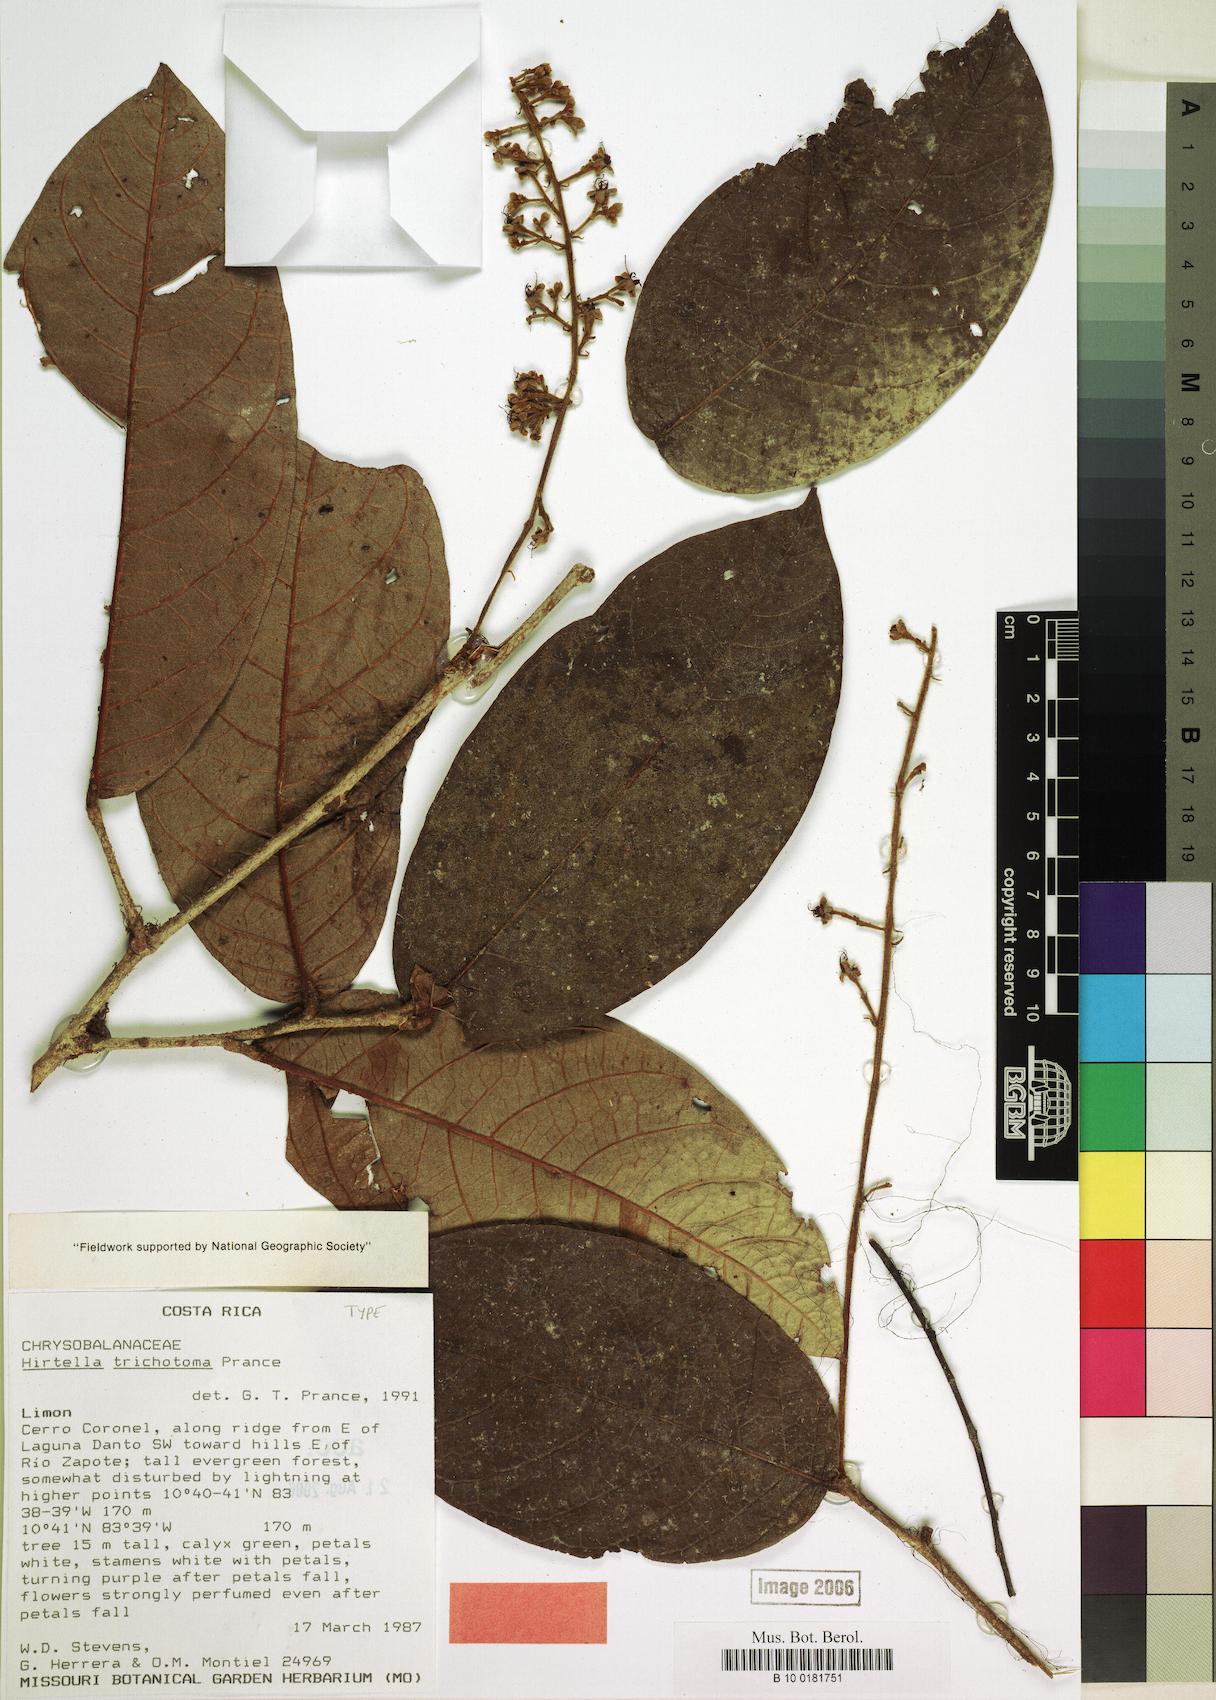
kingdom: Plantae
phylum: Tracheophyta
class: Magnoliopsida
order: Malpighiales
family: Chrysobalanaceae
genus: Hirtella
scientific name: Hirtella trichotoma
